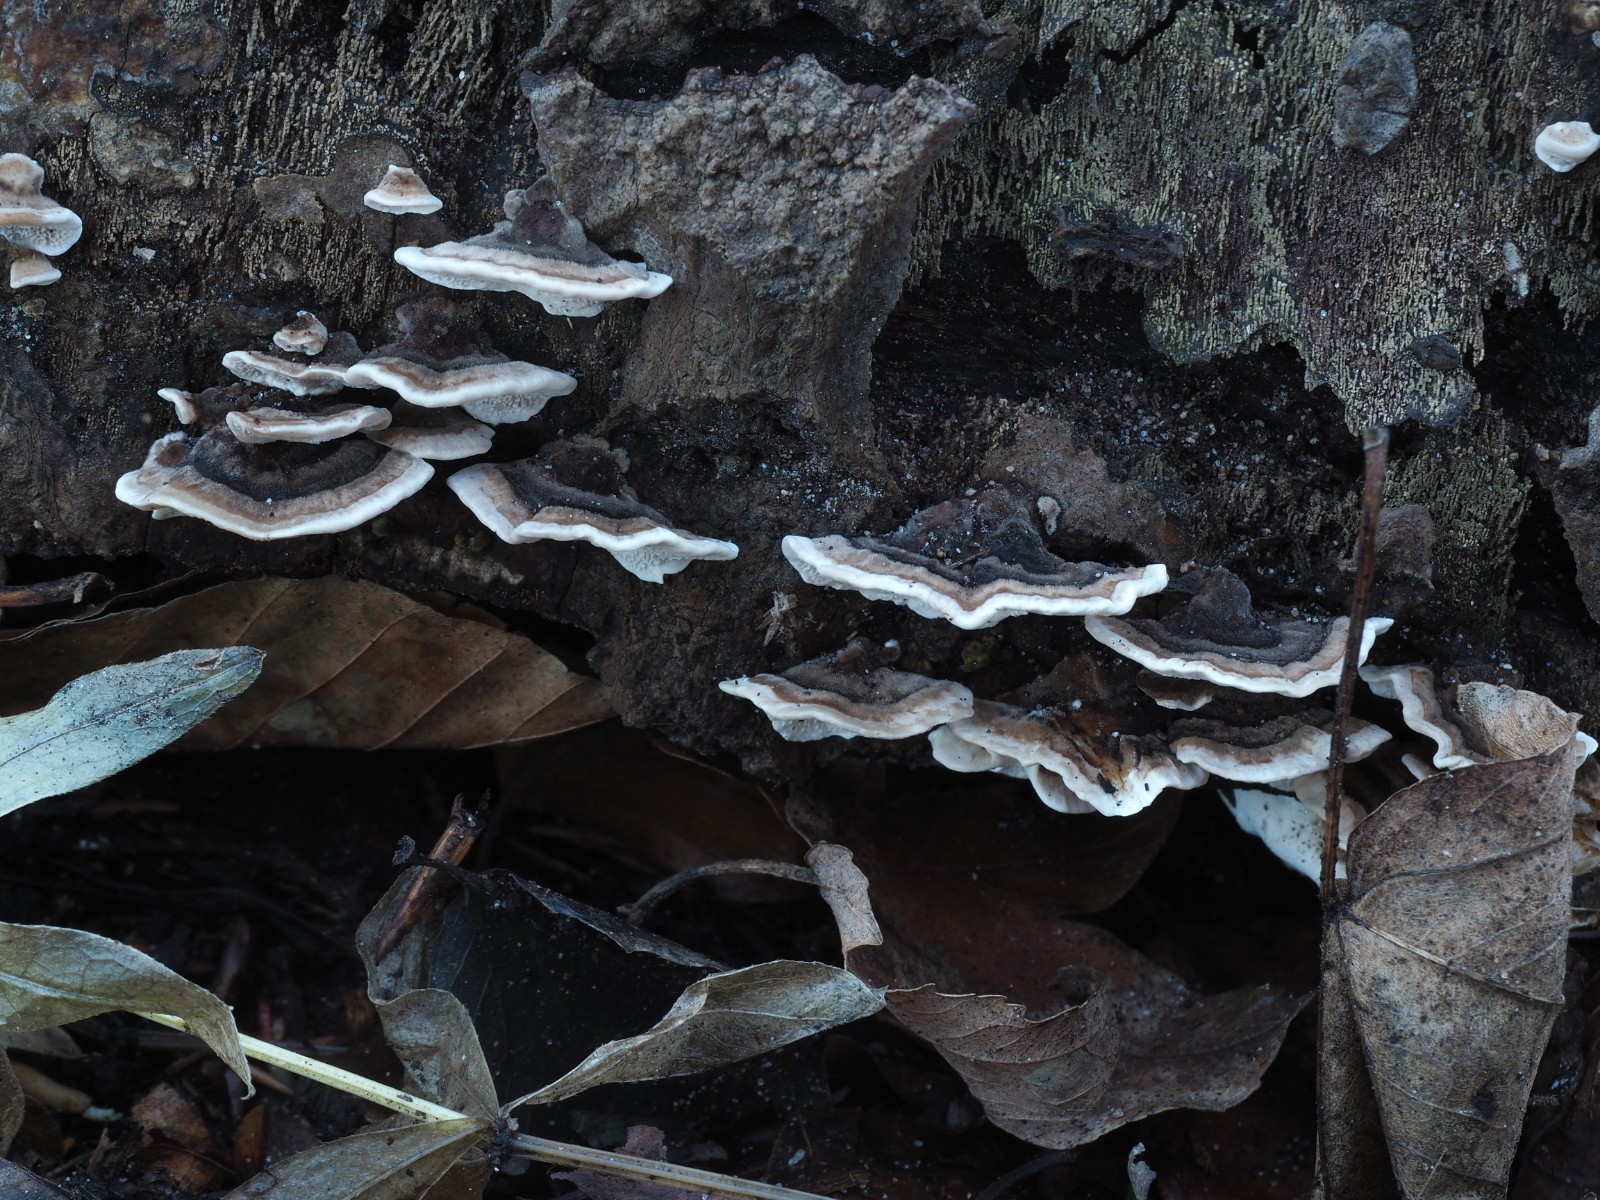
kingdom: Fungi
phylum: Basidiomycota
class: Agaricomycetes
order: Polyporales
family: Polyporaceae
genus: Trametes
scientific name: Trametes versicolor
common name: broget læderporesvamp
